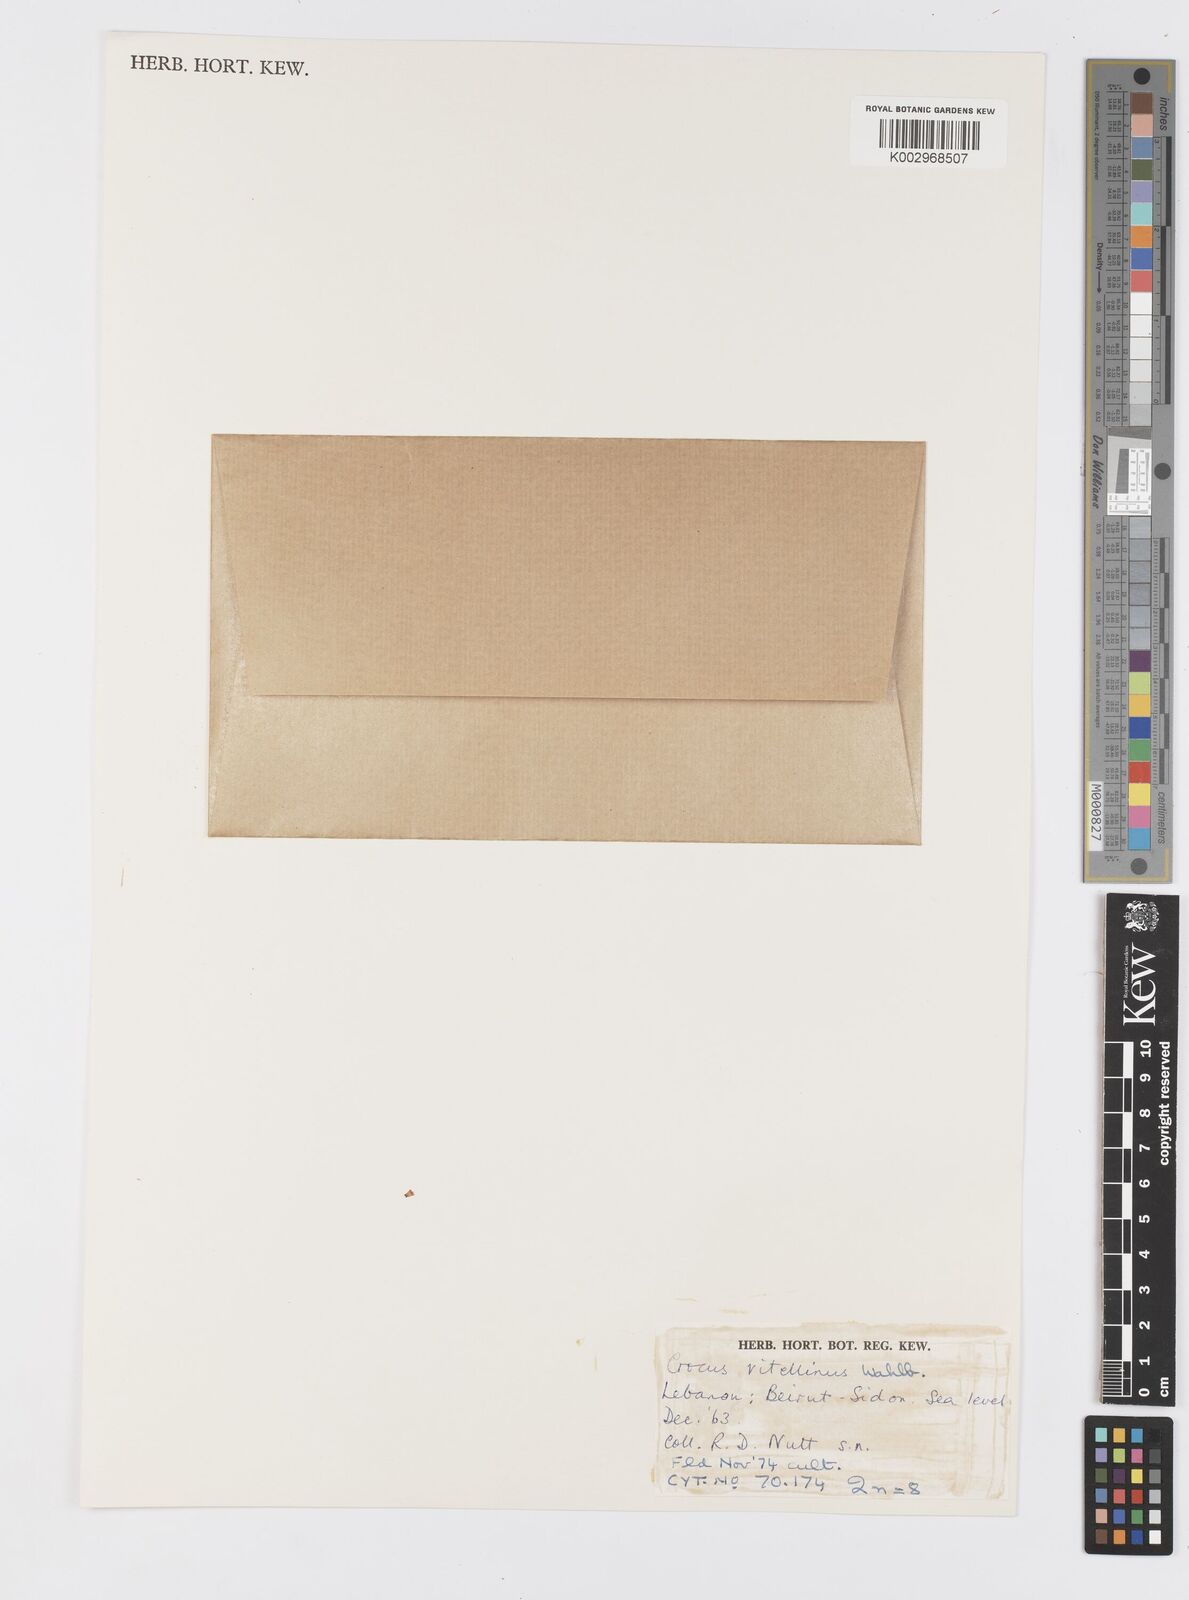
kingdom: Plantae
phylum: Tracheophyta
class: Liliopsida
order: Asparagales
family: Iridaceae
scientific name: Iridaceae
